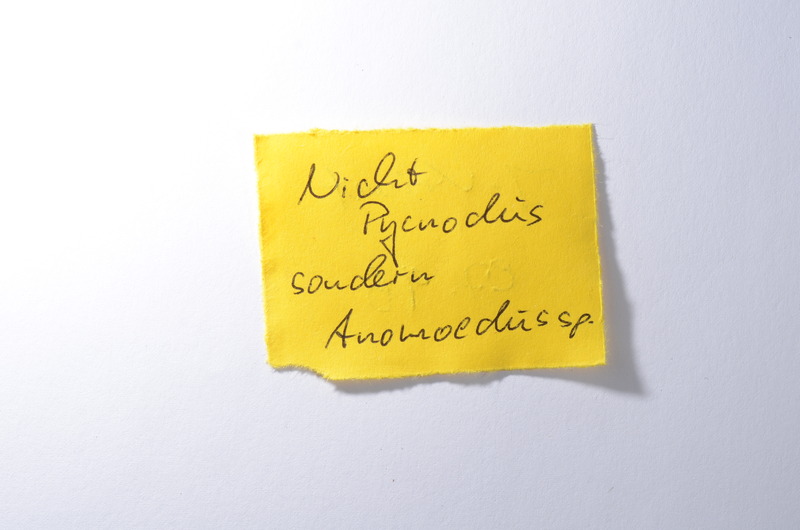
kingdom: Animalia
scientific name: Animalia
